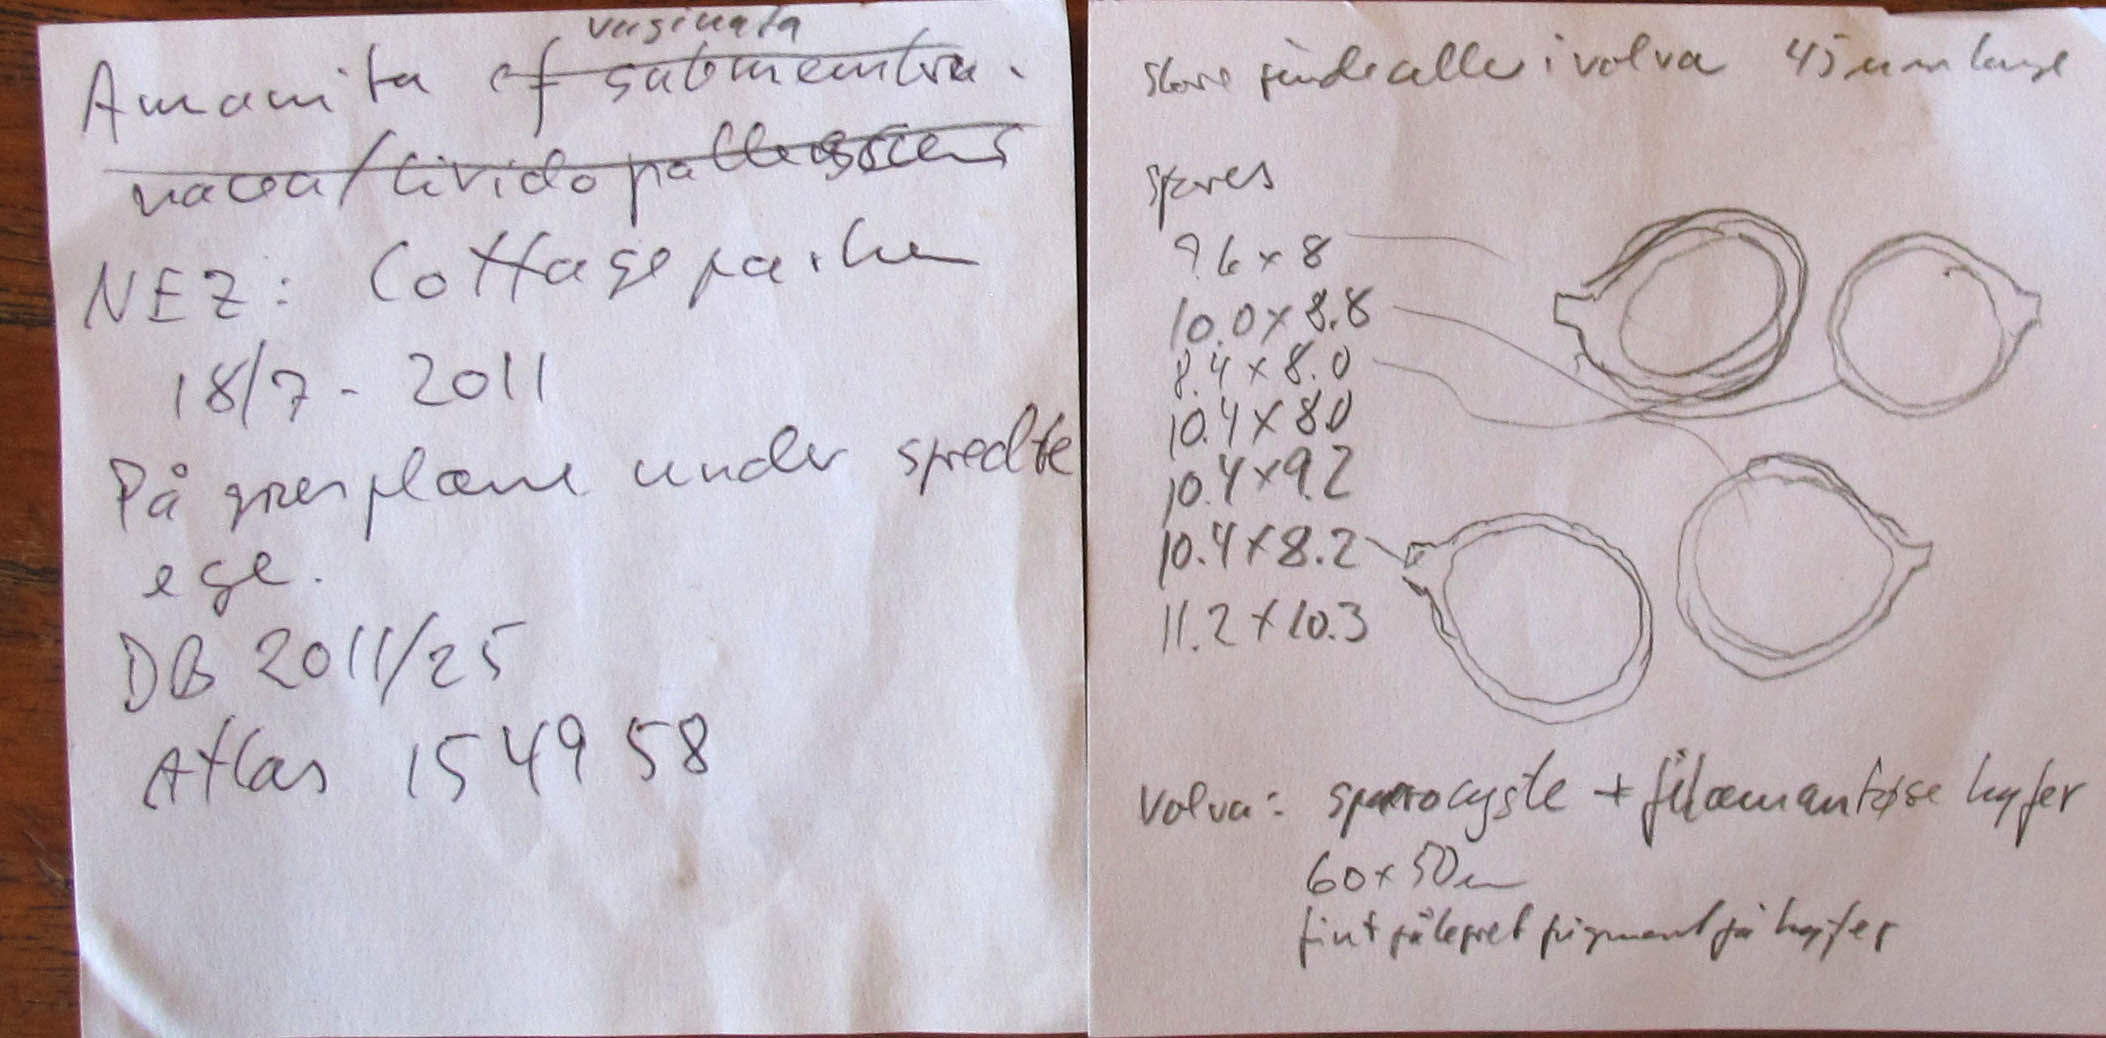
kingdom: Fungi
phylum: Basidiomycota
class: Agaricomycetes
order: Agaricales
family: Amanitaceae
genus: Amanita
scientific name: Amanita huijsmanii
